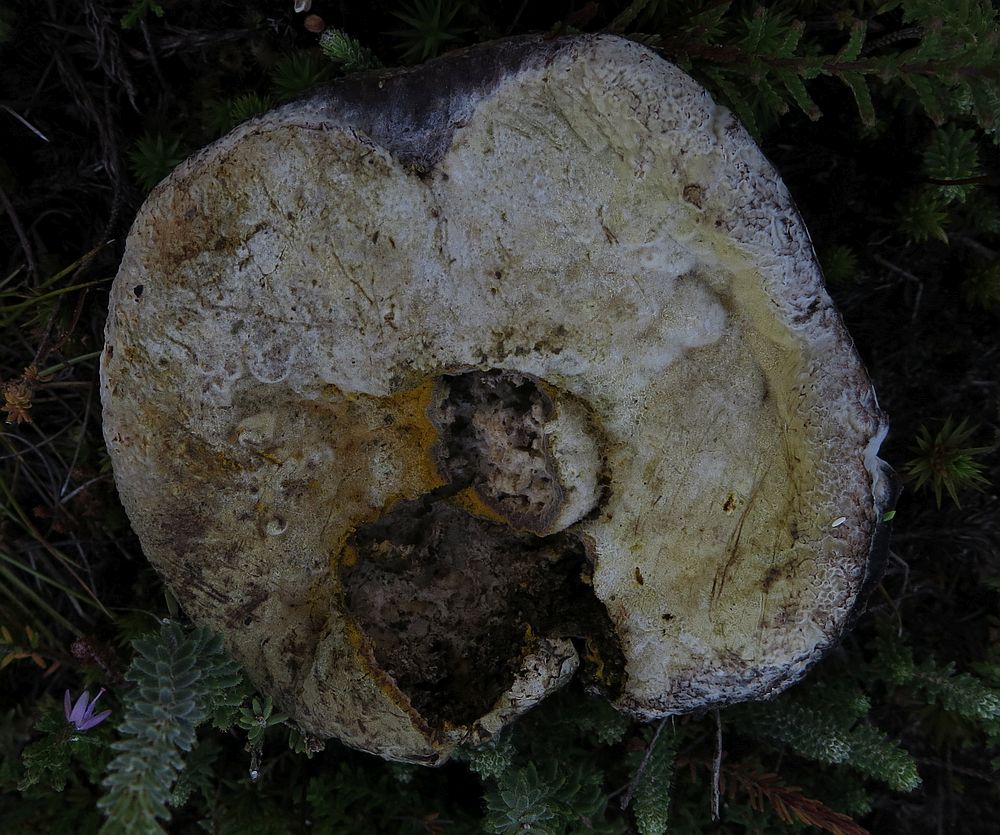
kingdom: Fungi
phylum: Ascomycota
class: Sordariomycetes
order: Hypocreales
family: Hypocreaceae
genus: Hypomyces
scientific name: Hypomyces chrysospermus
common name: gulskimmel-snylteskorpe
